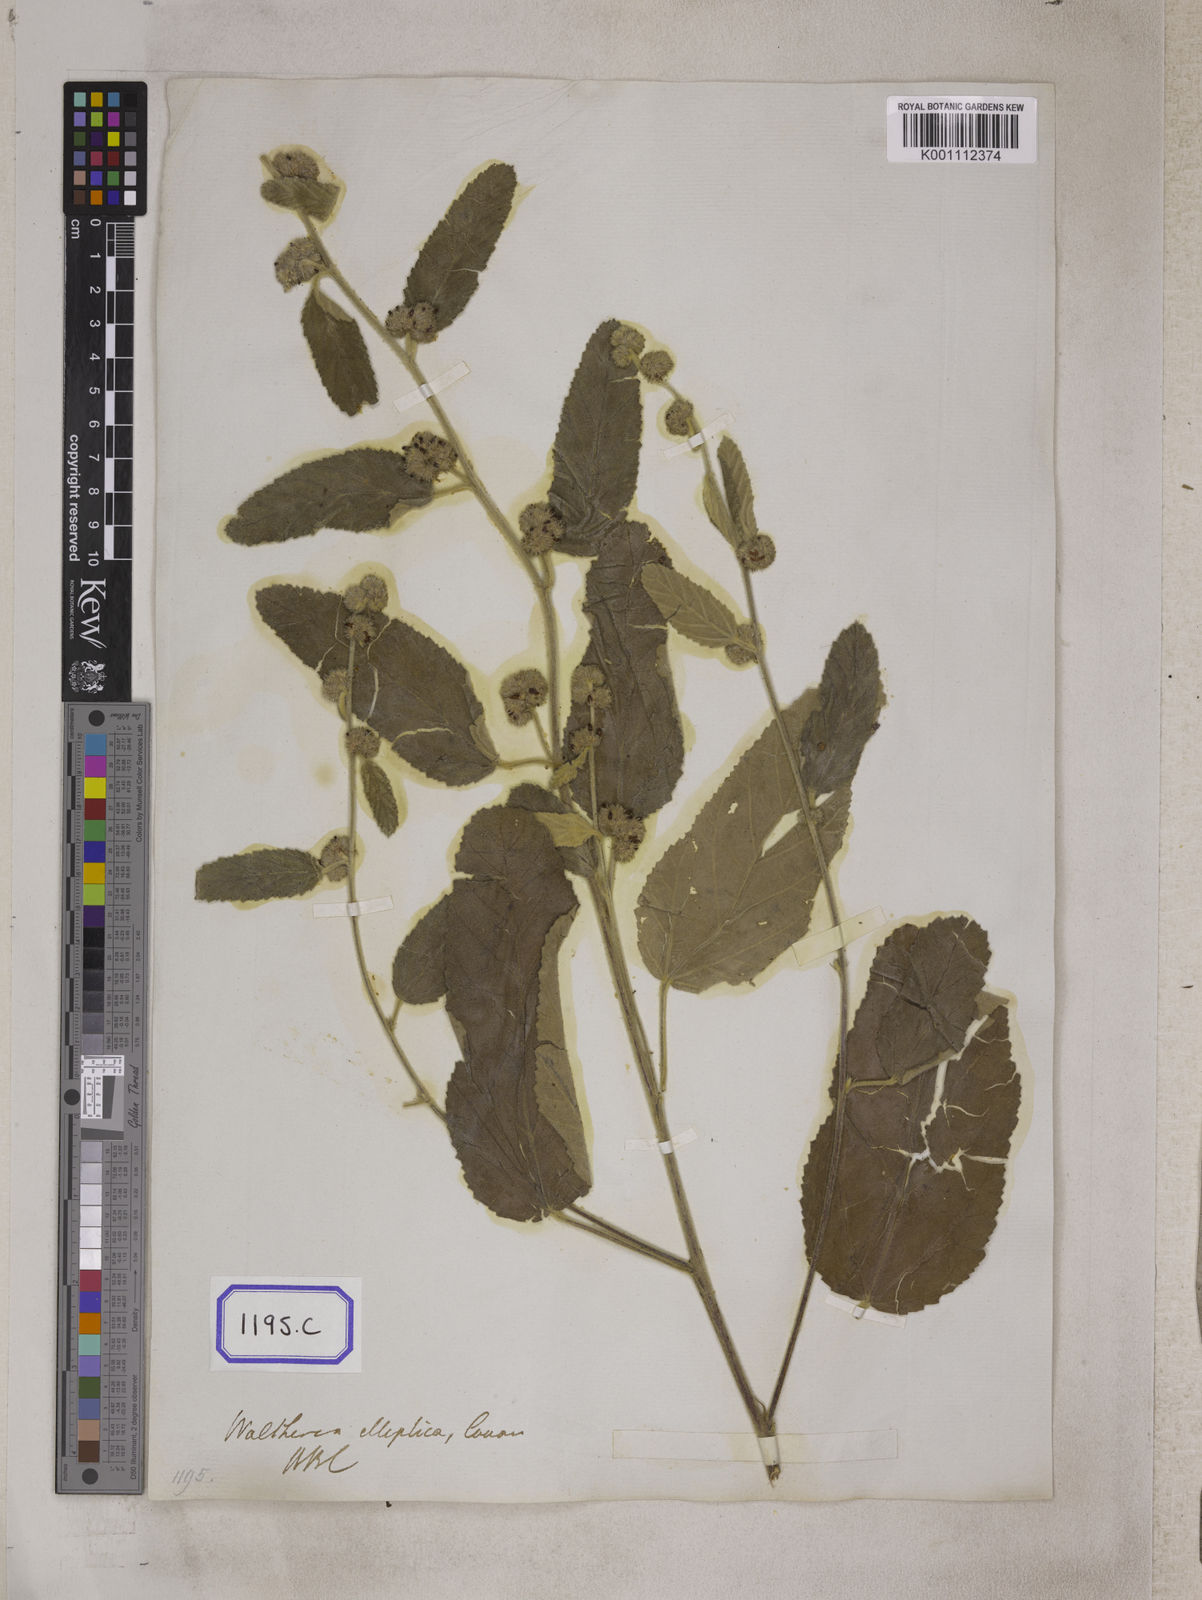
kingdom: Plantae
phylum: Tracheophyta
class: Magnoliopsida
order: Malvales
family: Malvaceae
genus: Waltheria
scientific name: Waltheria indica
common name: Leather-coat
